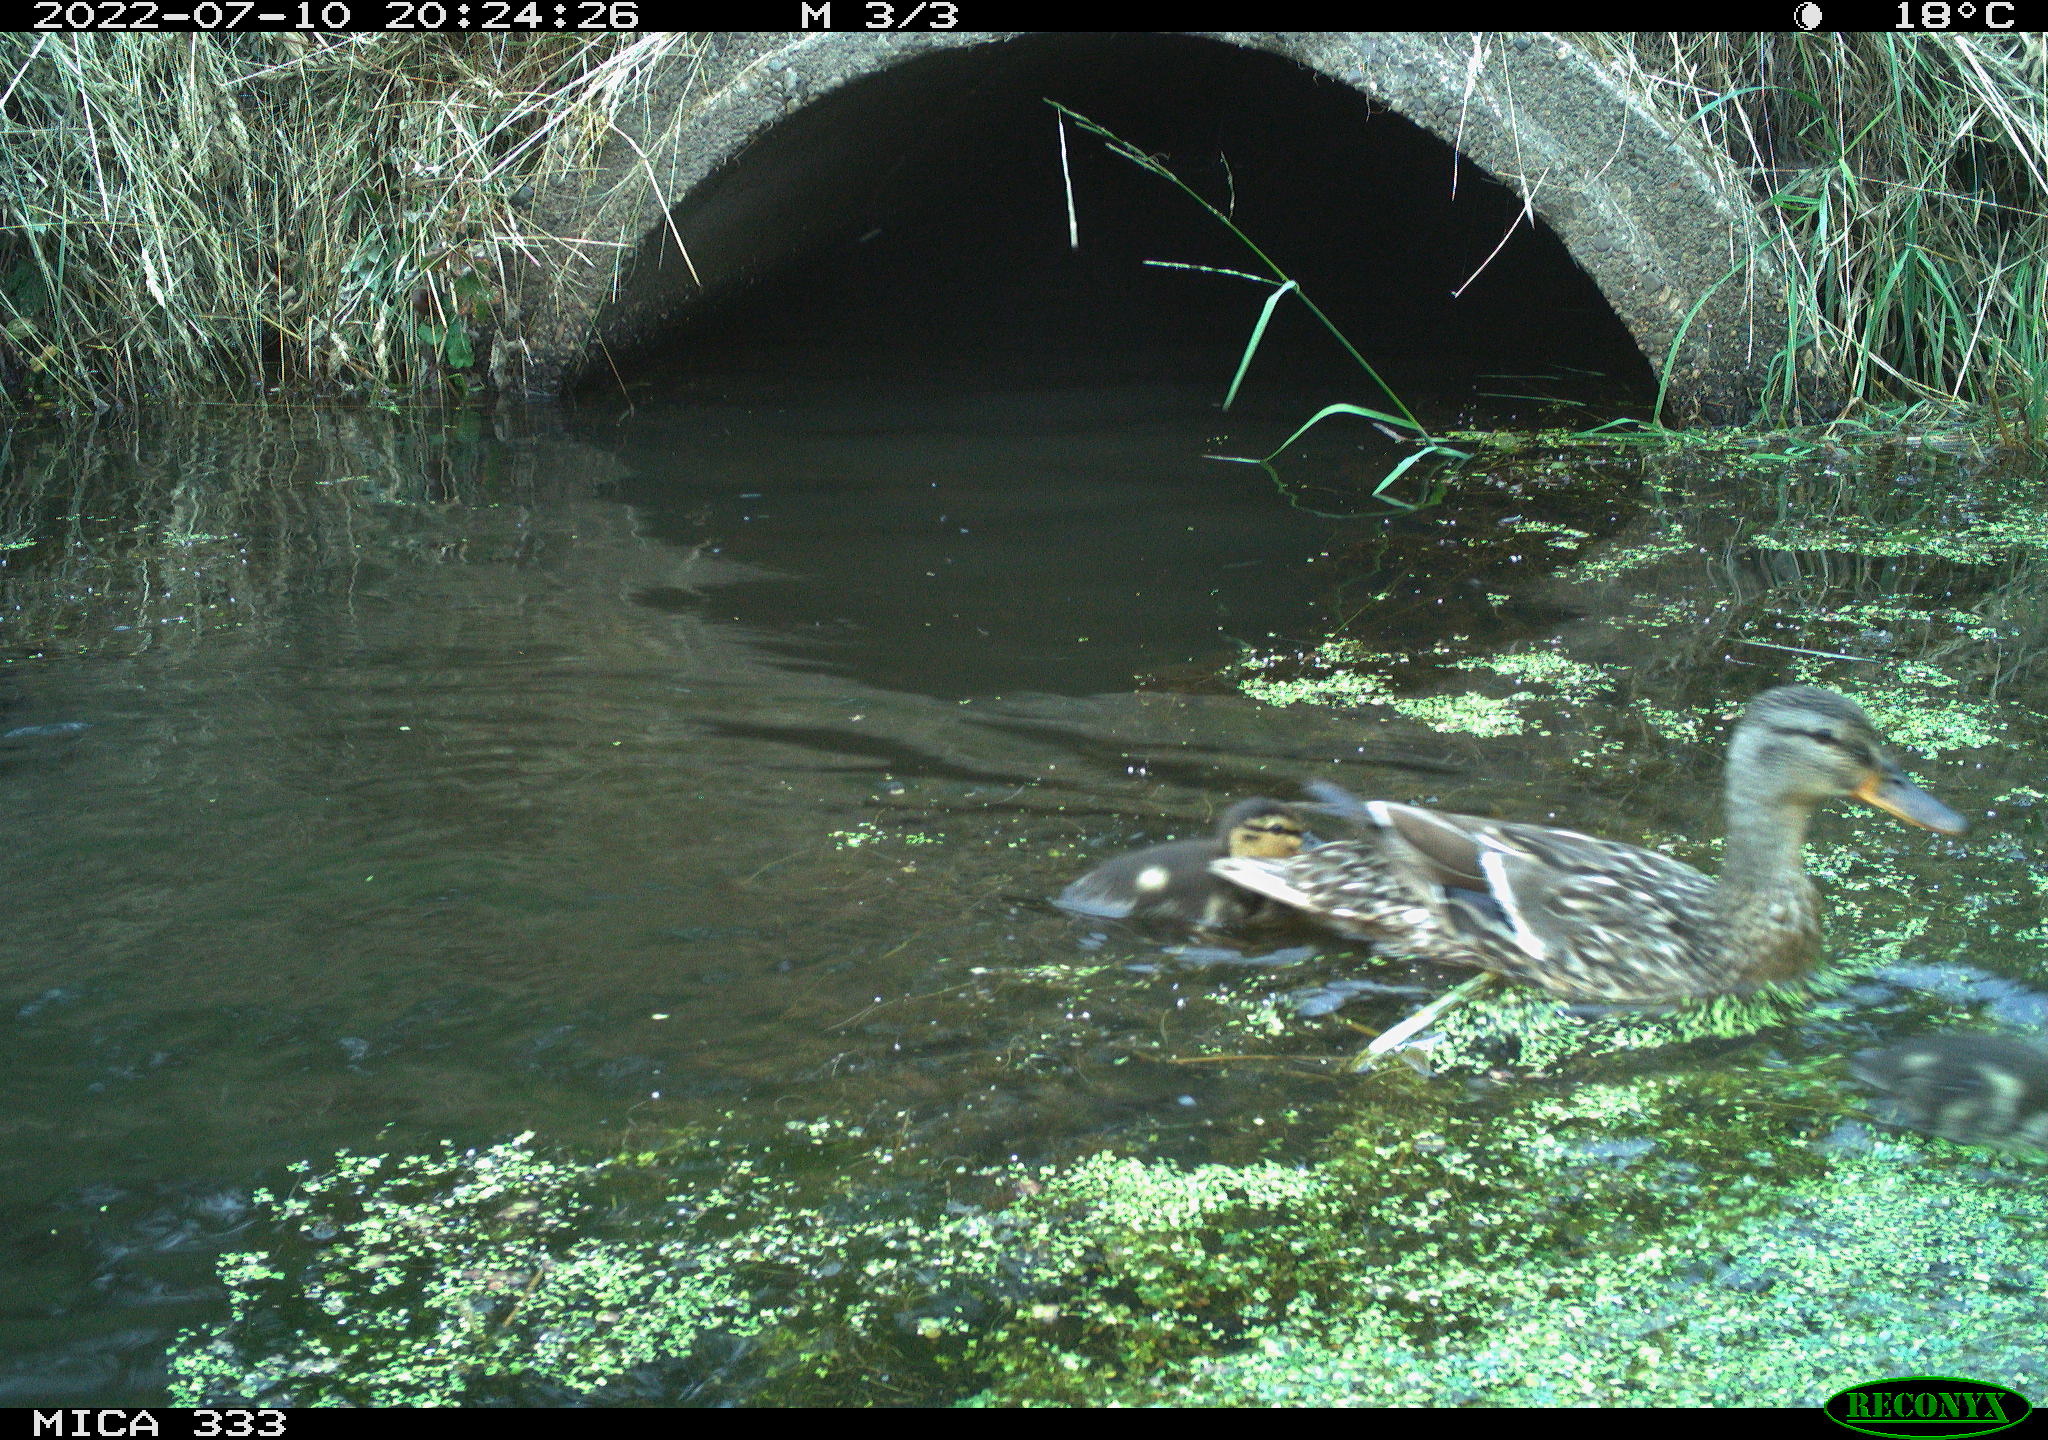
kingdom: Animalia
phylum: Chordata
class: Aves
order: Anseriformes
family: Anatidae
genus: Anas
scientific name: Anas platyrhynchos
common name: Mallard
